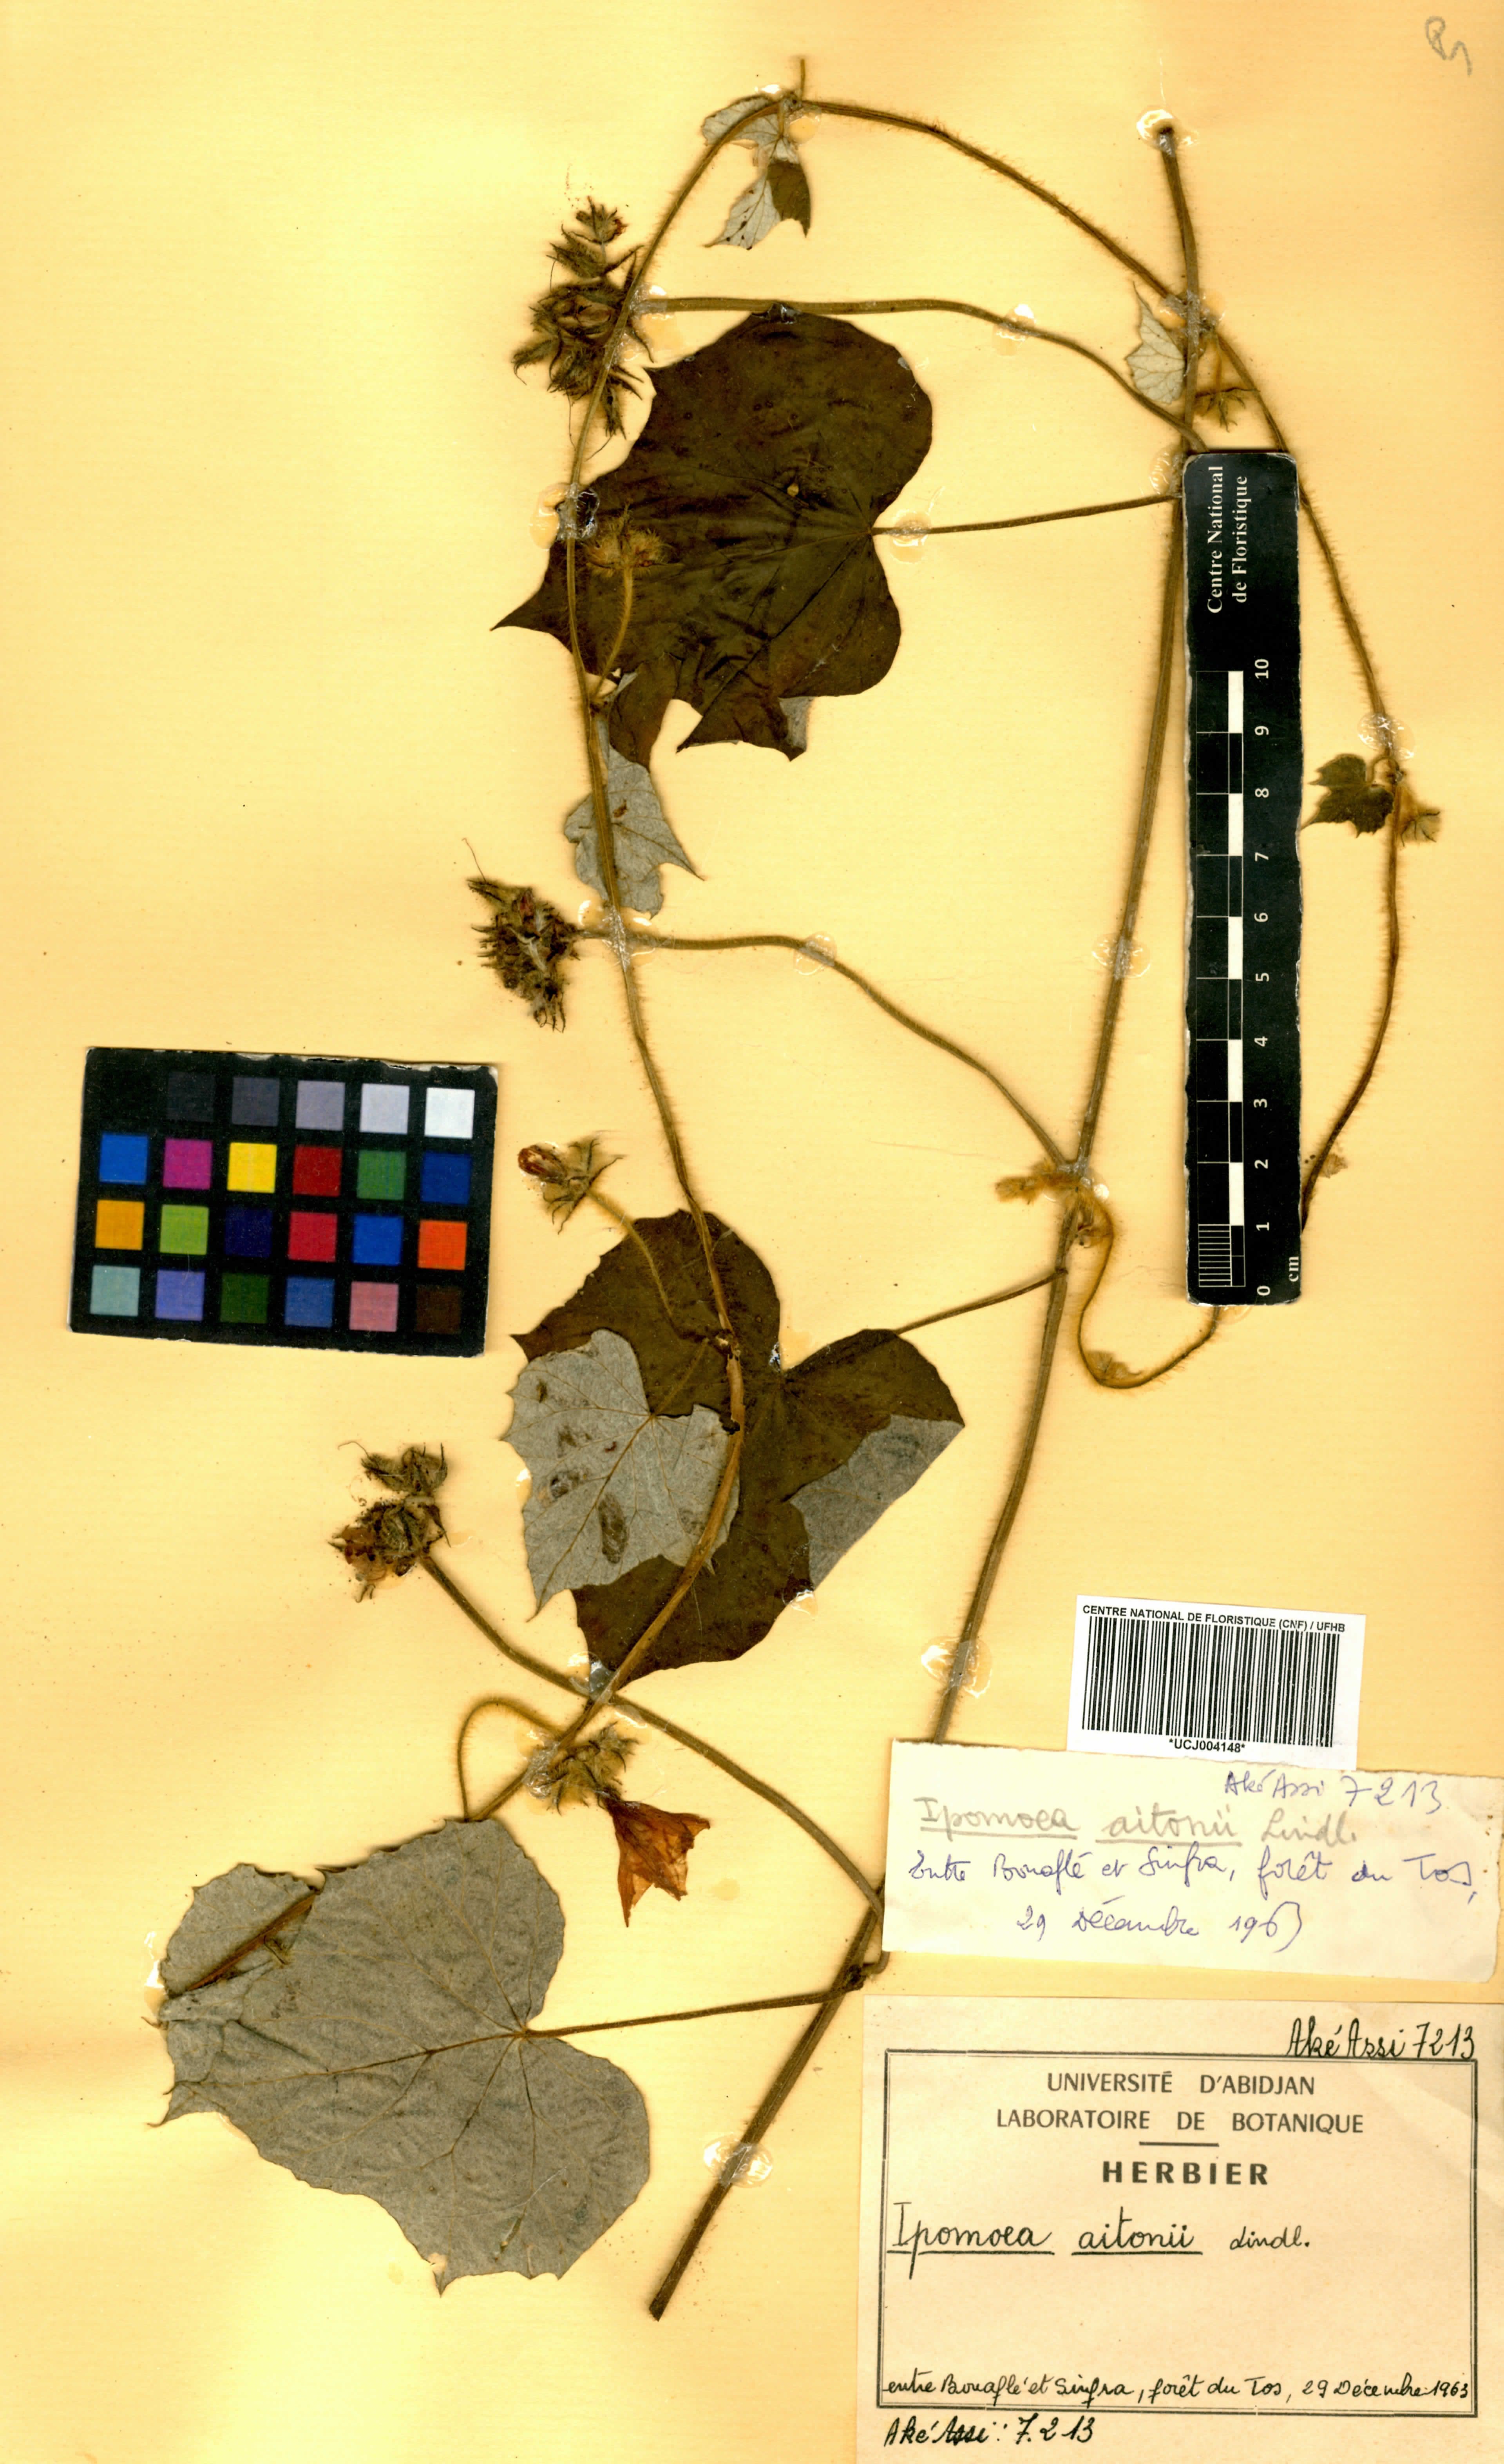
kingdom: Plantae
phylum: Tracheophyta
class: Magnoliopsida
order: Solanales
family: Convolvulaceae
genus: Ipomoea
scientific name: Ipomoea arachnosperma
